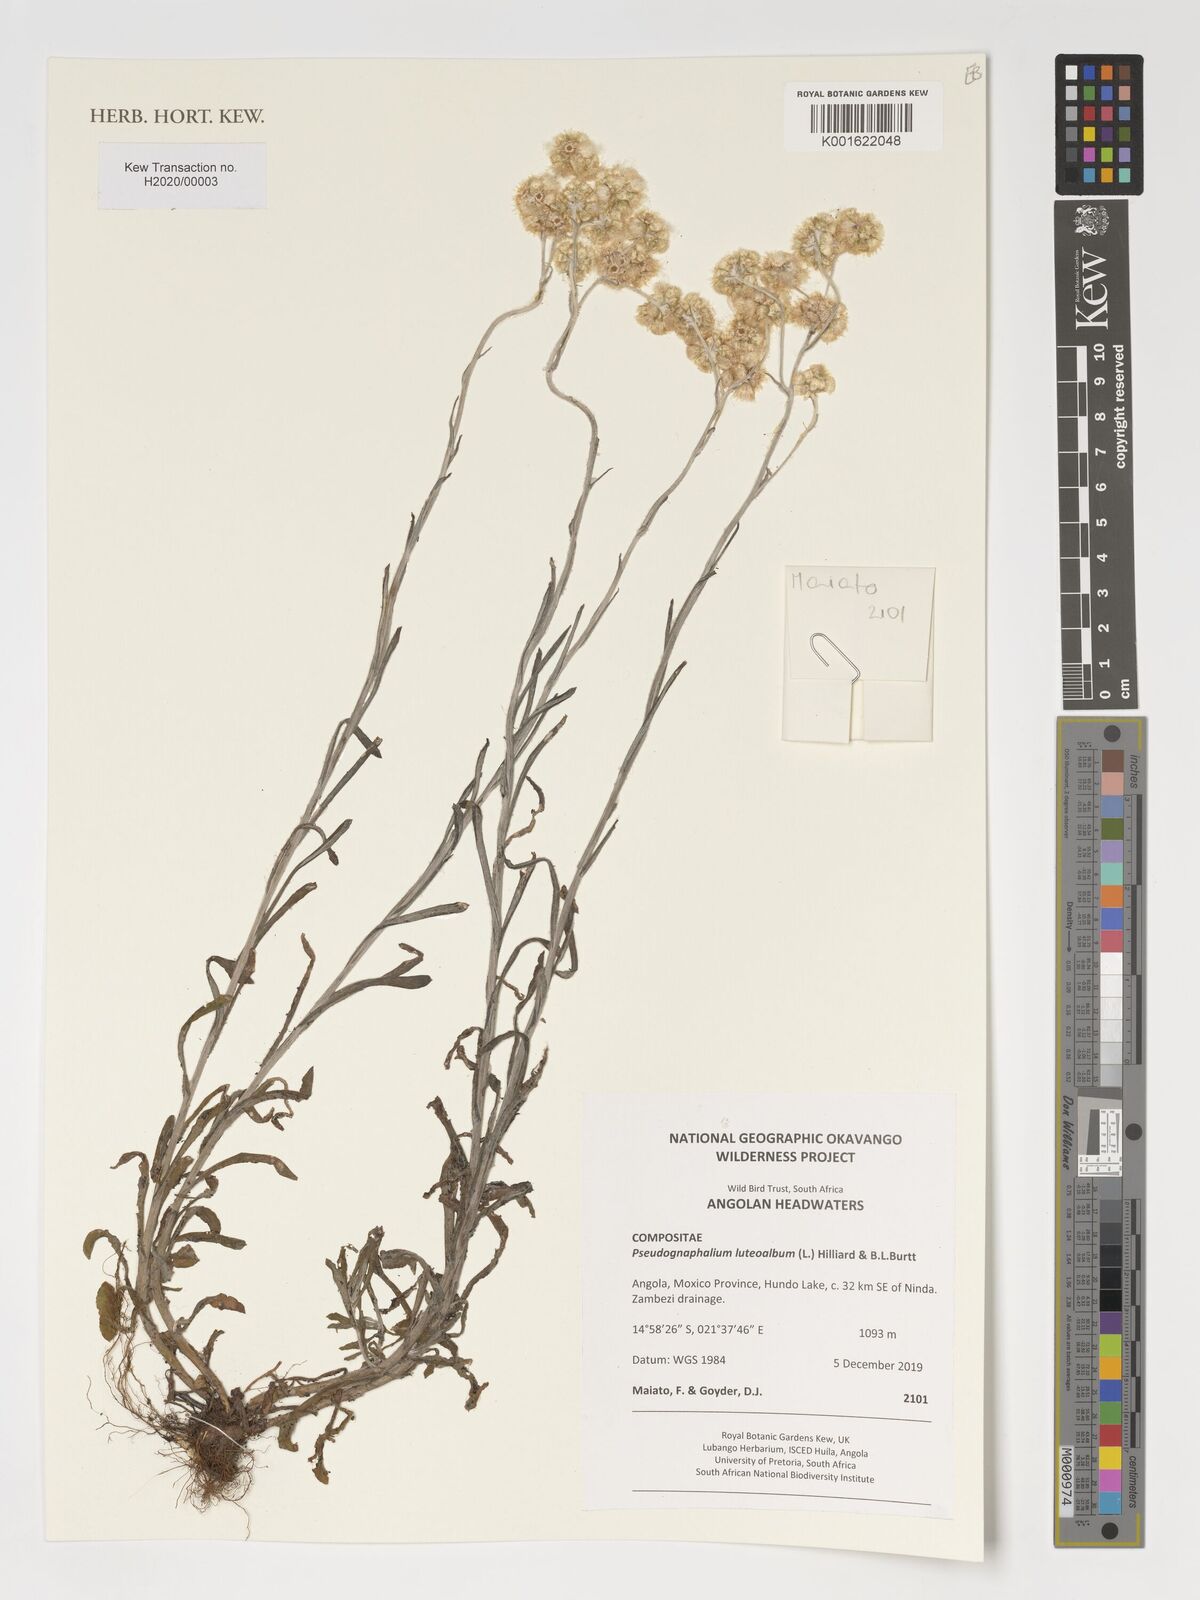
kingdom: Plantae
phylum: Tracheophyta
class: Magnoliopsida
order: Asterales
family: Asteraceae
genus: Helichrysum
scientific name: Helichrysum luteoalbum
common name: Daisy
